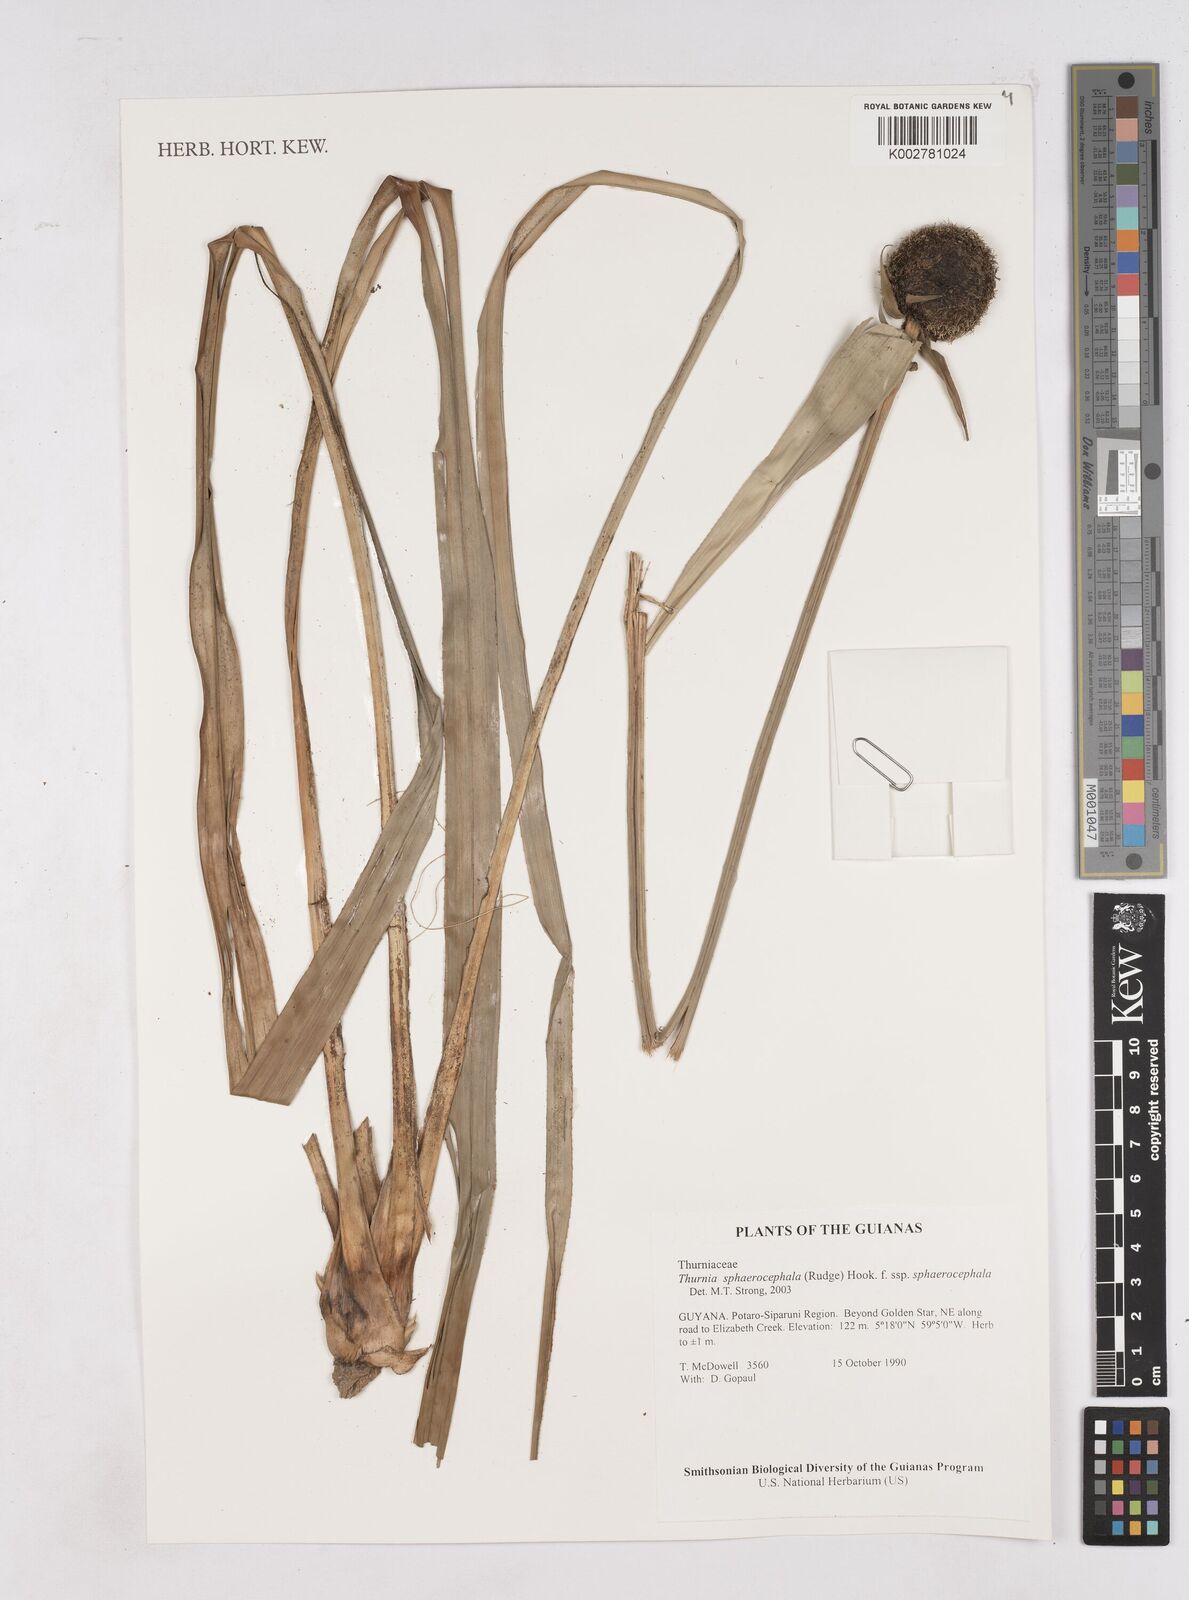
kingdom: Plantae
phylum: Tracheophyta
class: Liliopsida
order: Poales
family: Thurniaceae
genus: Thurnia
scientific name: Thurnia sphaerocephala
